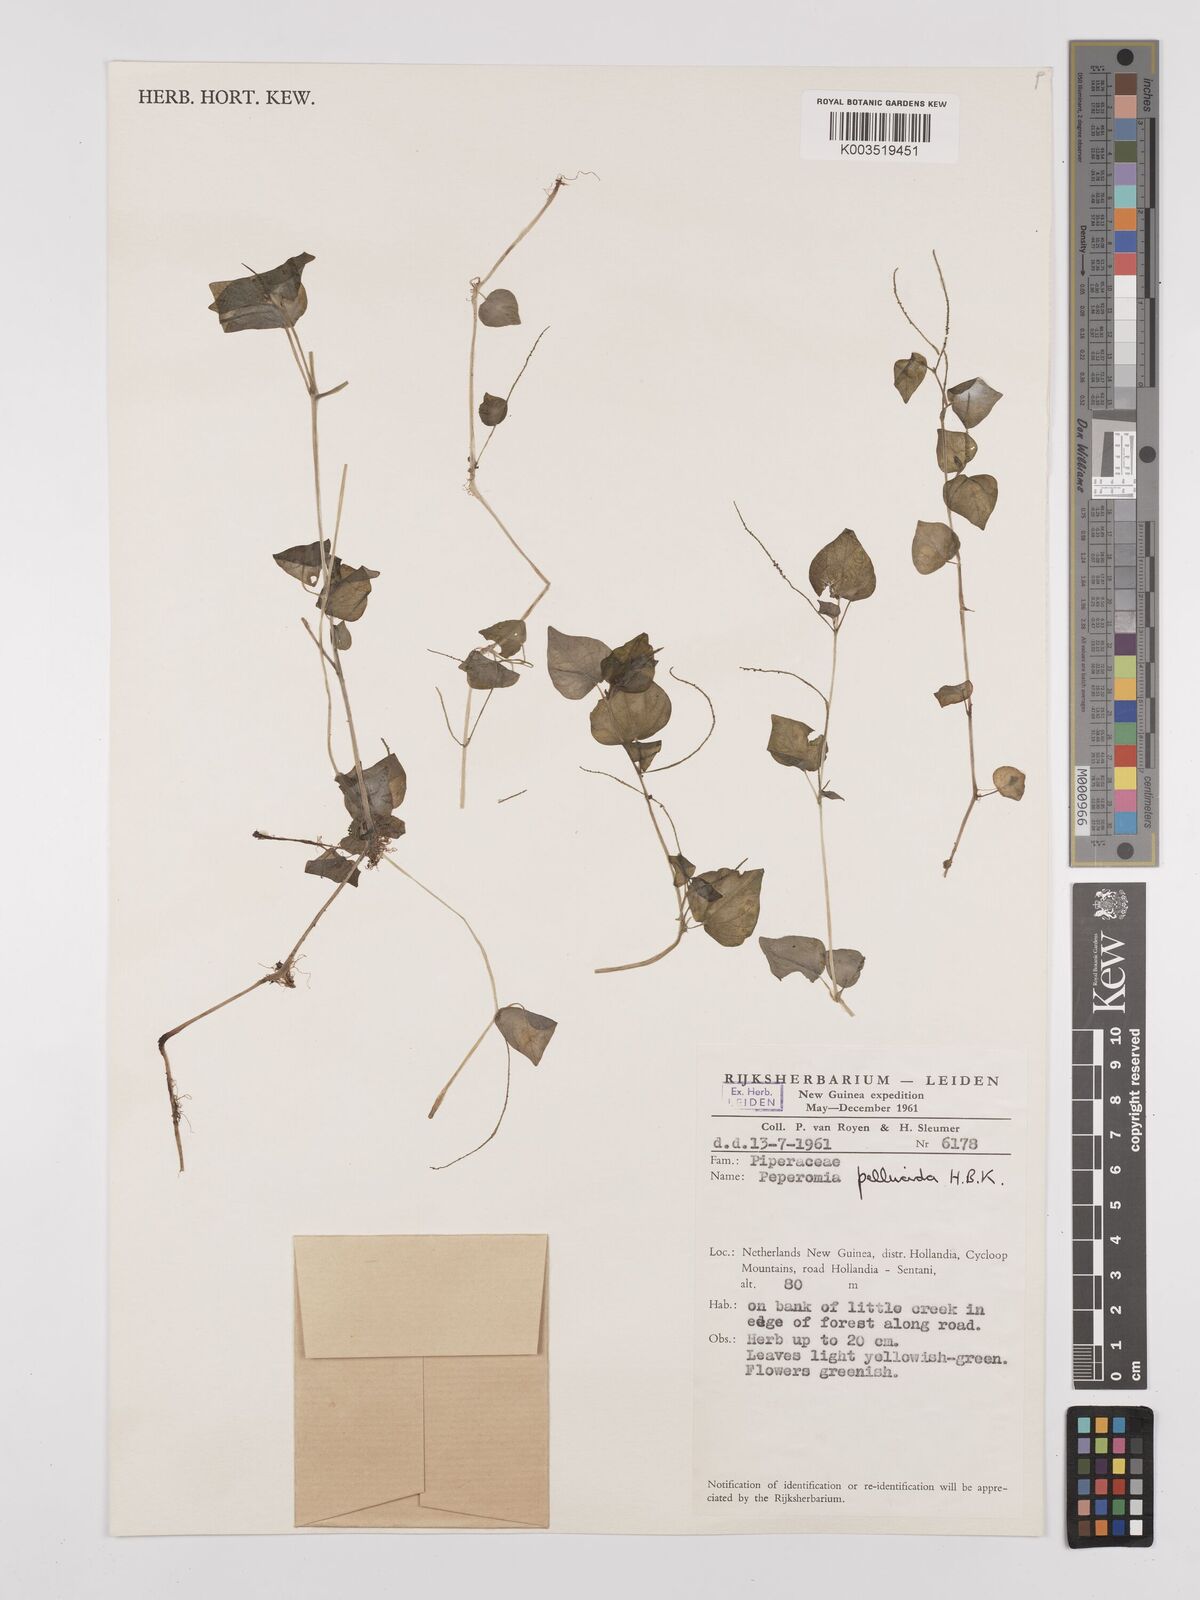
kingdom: Plantae
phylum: Tracheophyta
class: Magnoliopsida
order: Piperales
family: Piperaceae
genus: Peperomia
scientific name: Peperomia pellucida
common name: Man to man
